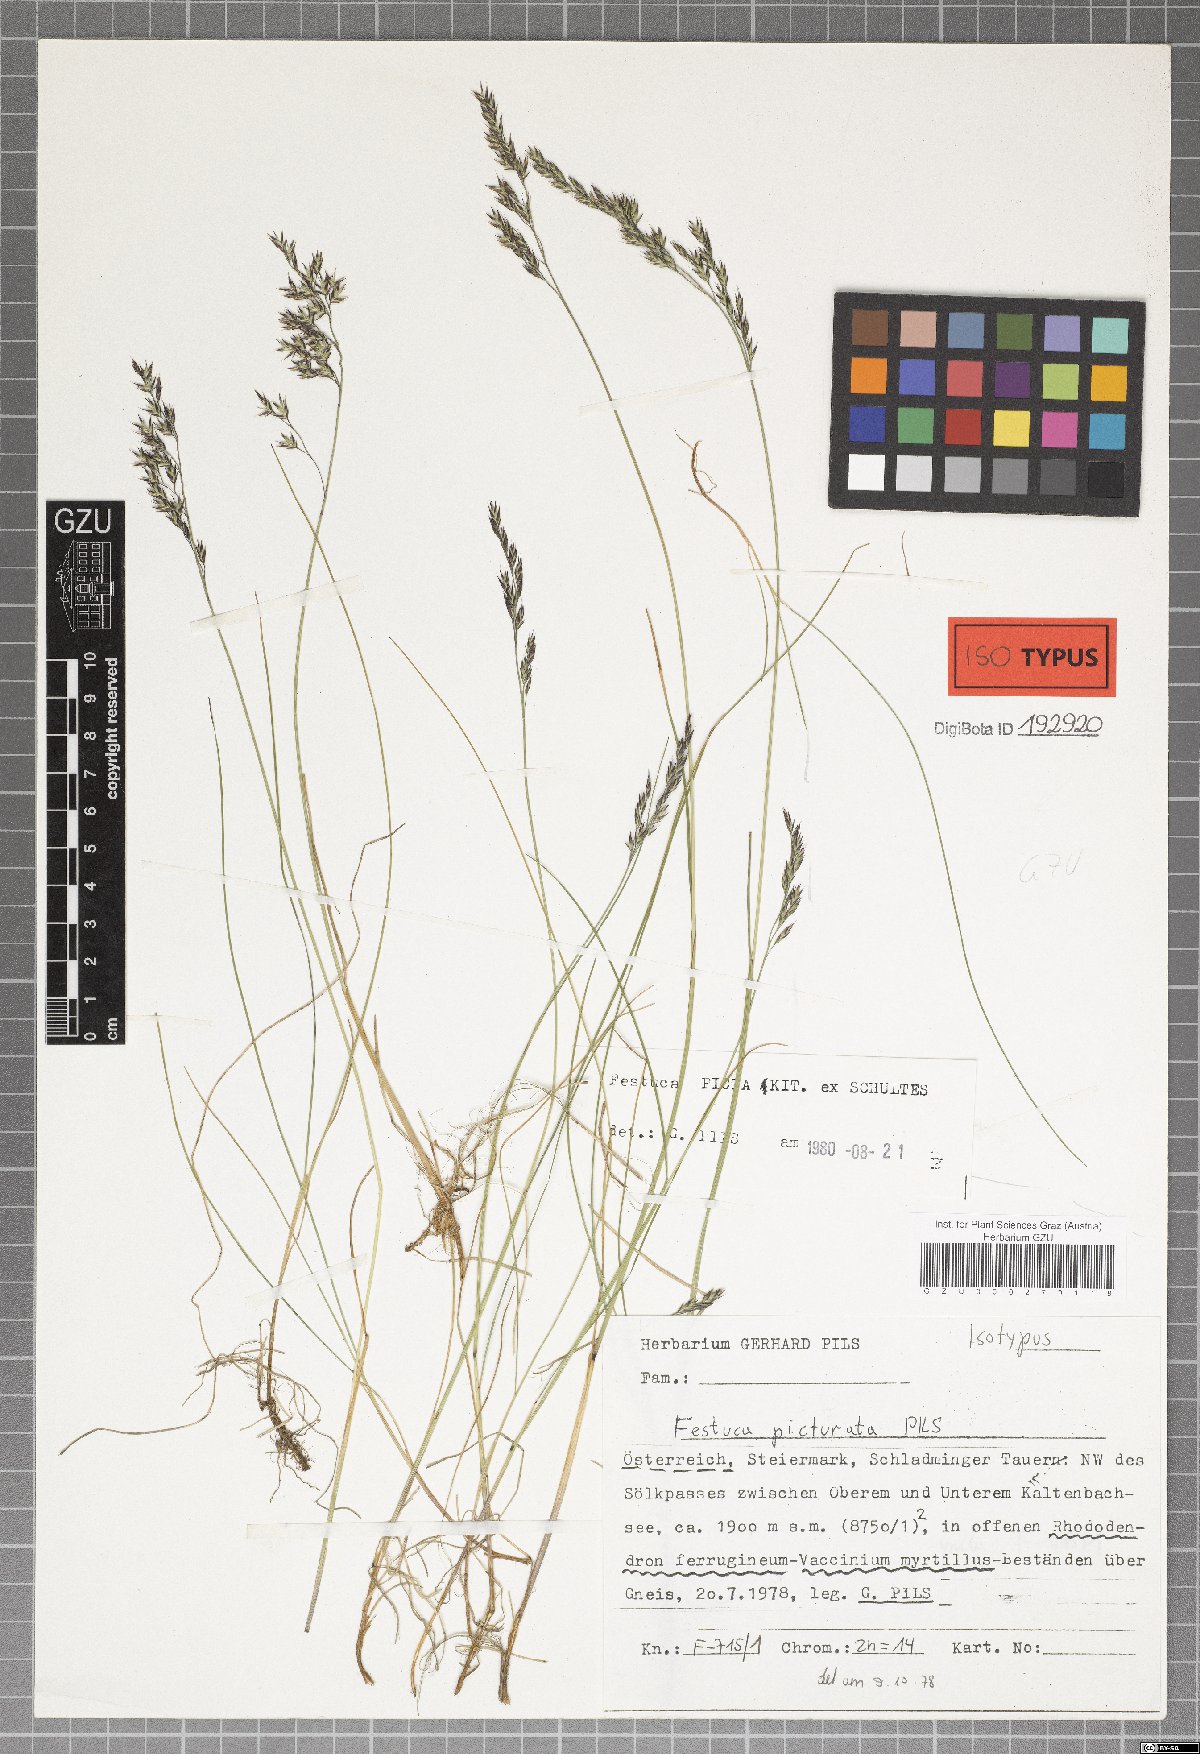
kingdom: Plantae
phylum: Tracheophyta
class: Liliopsida
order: Poales
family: Poaceae
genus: Festuca
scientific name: Festuca picturata
